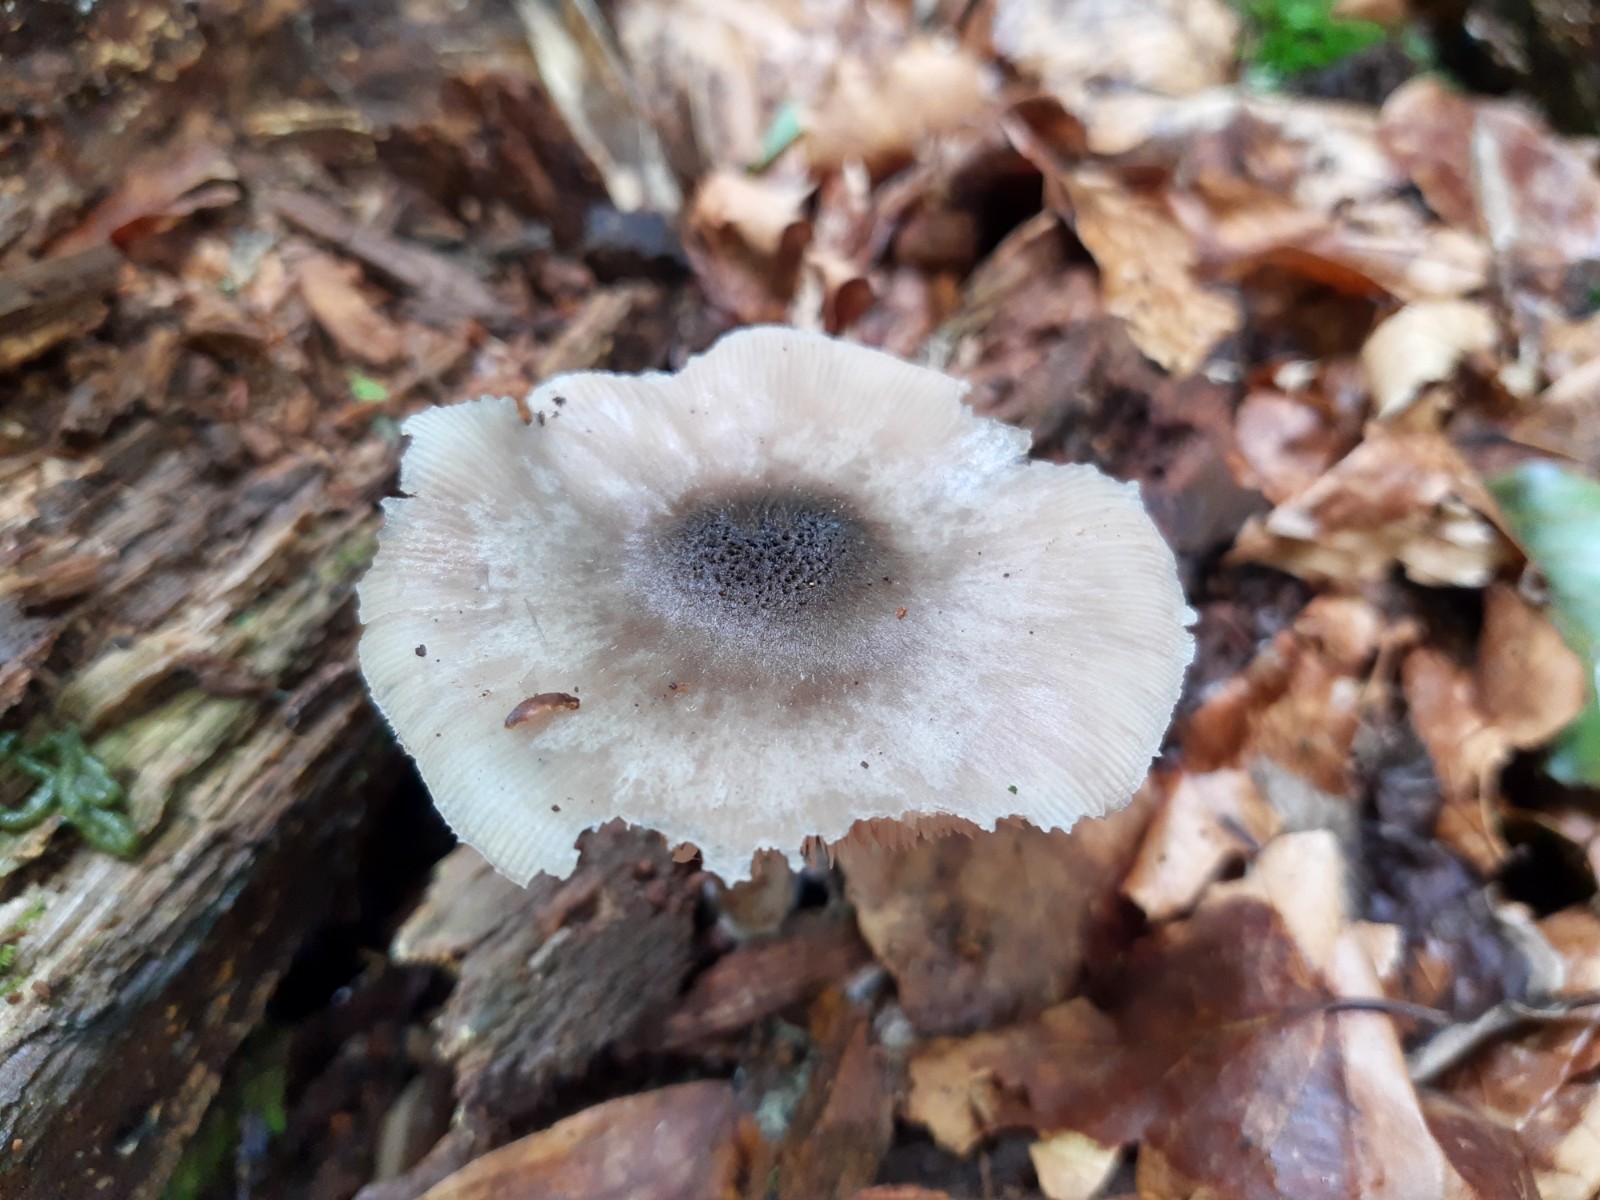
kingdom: Fungi
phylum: Basidiomycota
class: Agaricomycetes
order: Agaricales
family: Pluteaceae
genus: Pluteus
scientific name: Pluteus salicinus
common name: stiv skærmhat
